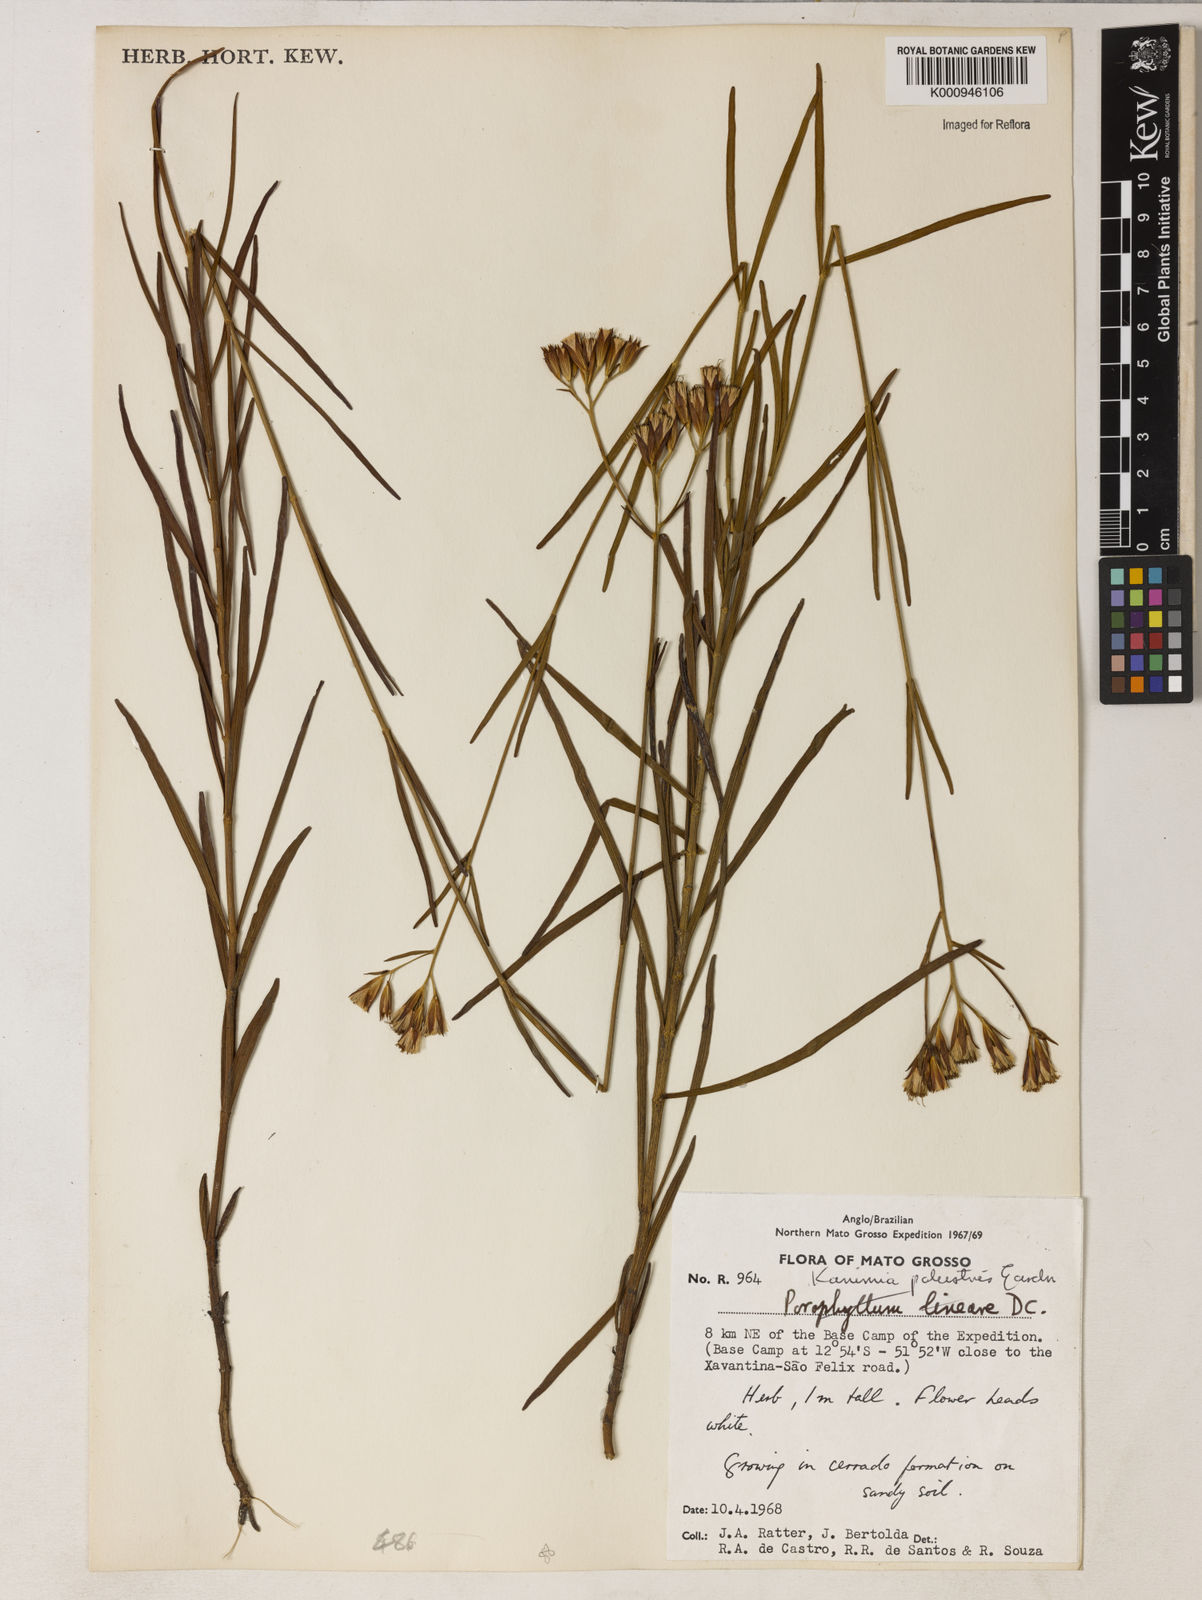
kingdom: Plantae
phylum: Tracheophyta
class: Magnoliopsida
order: Asterales
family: Asteraceae
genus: Mikania
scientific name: Mikania palustris
